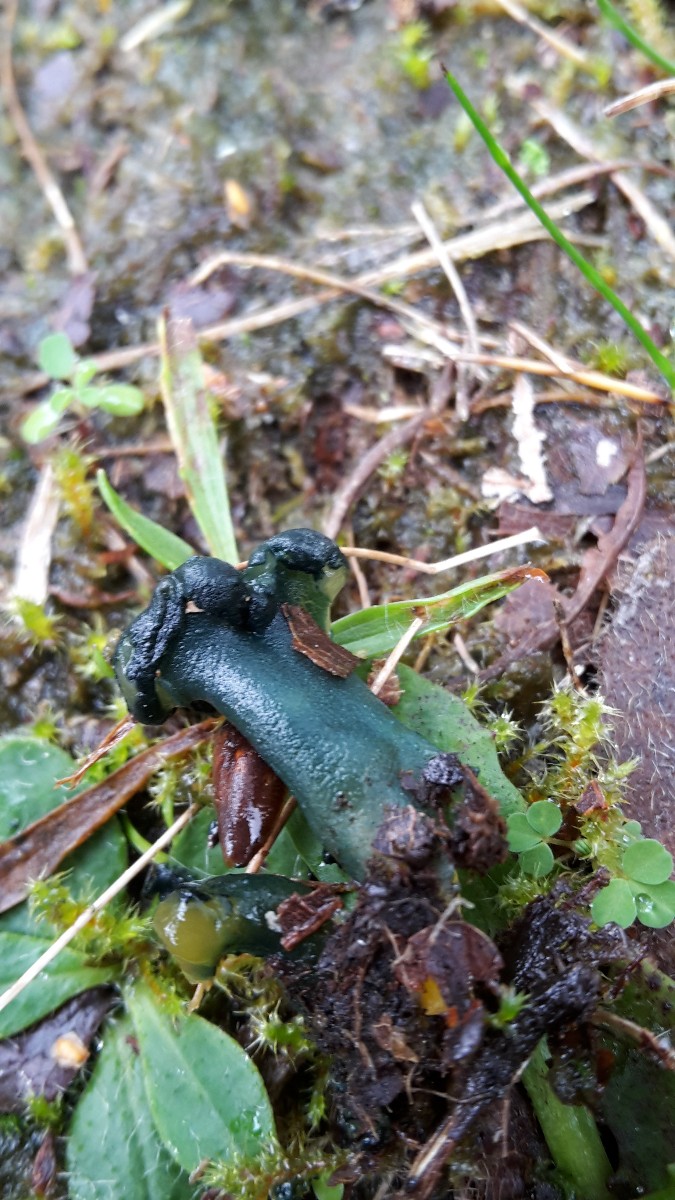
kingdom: Fungi
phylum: Ascomycota
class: Leotiomycetes
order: Leotiales
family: Leotiaceae
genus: Leotia
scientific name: Leotia lubrica
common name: ravsvamp
